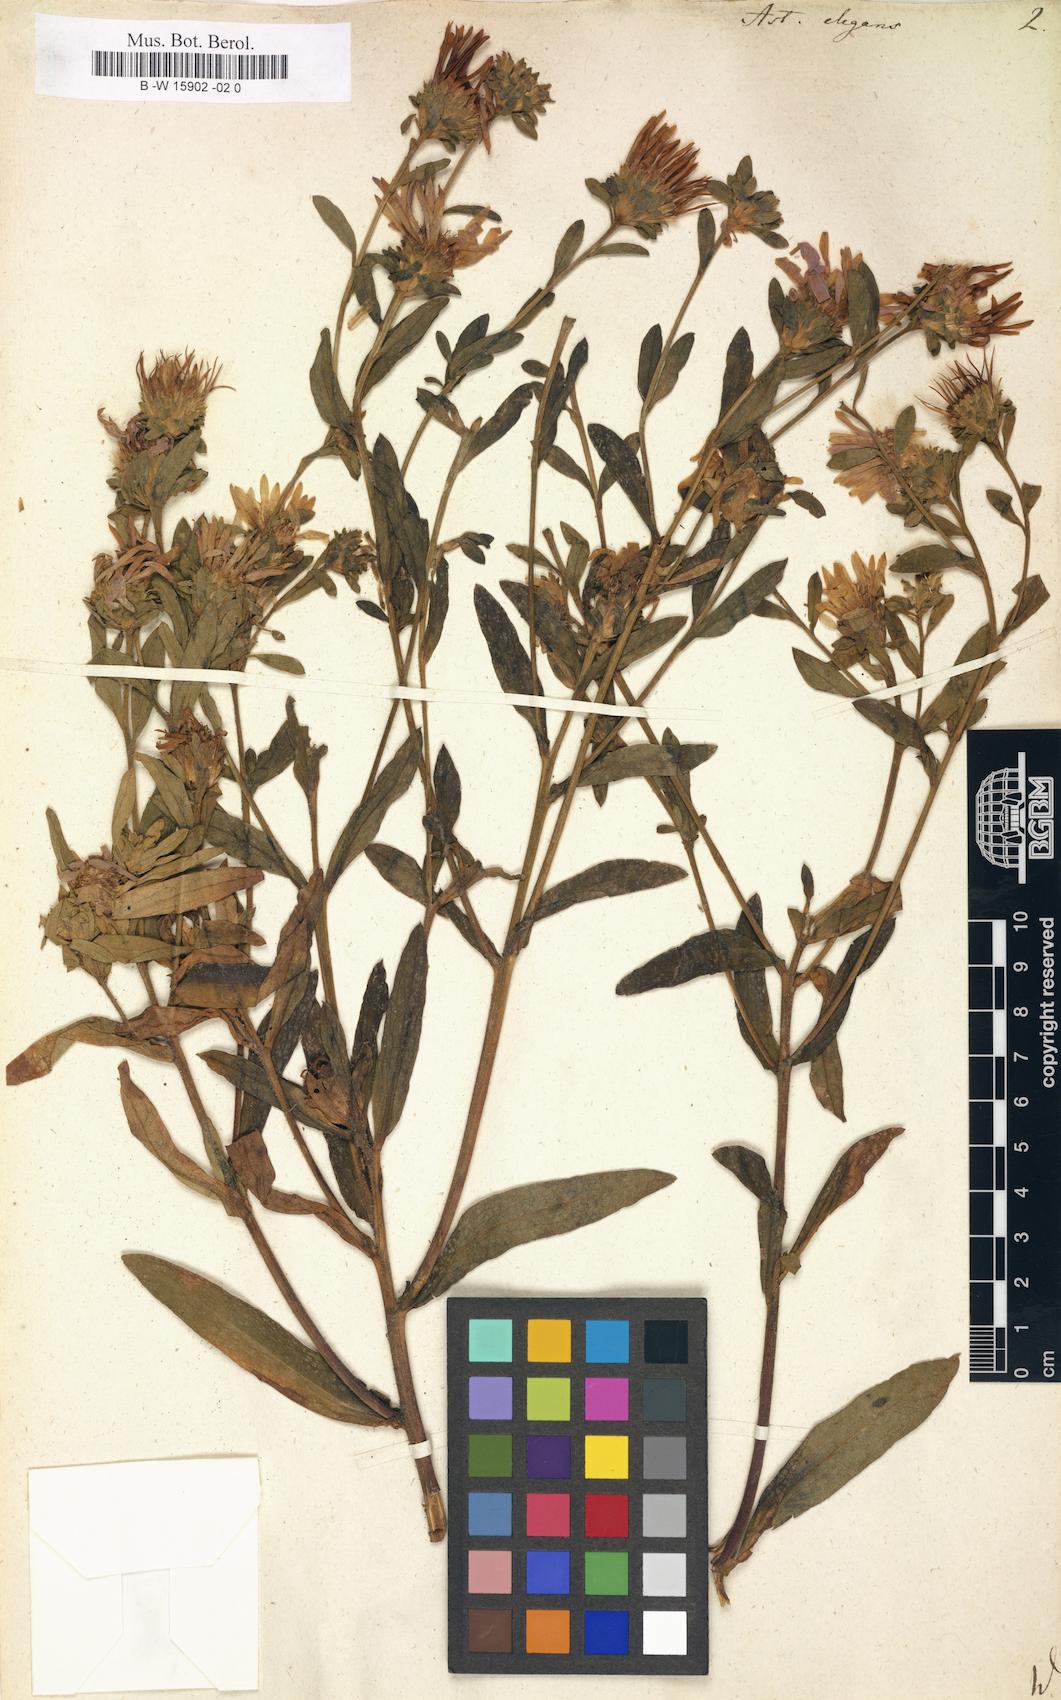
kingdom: Plantae
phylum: Tracheophyta
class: Magnoliopsida
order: Asterales
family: Asteraceae
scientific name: Asteraceae
